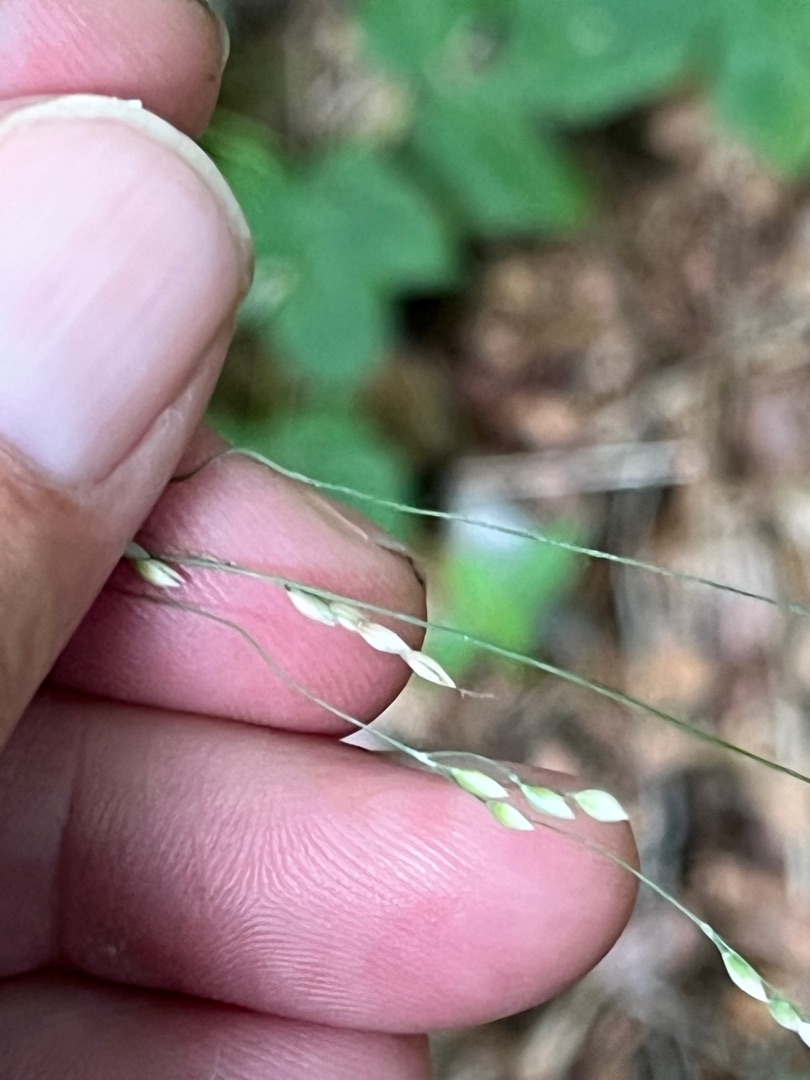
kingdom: Plantae
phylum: Tracheophyta
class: Liliopsida
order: Poales
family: Poaceae
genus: Milium
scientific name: Milium effusum
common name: Miliegræs
